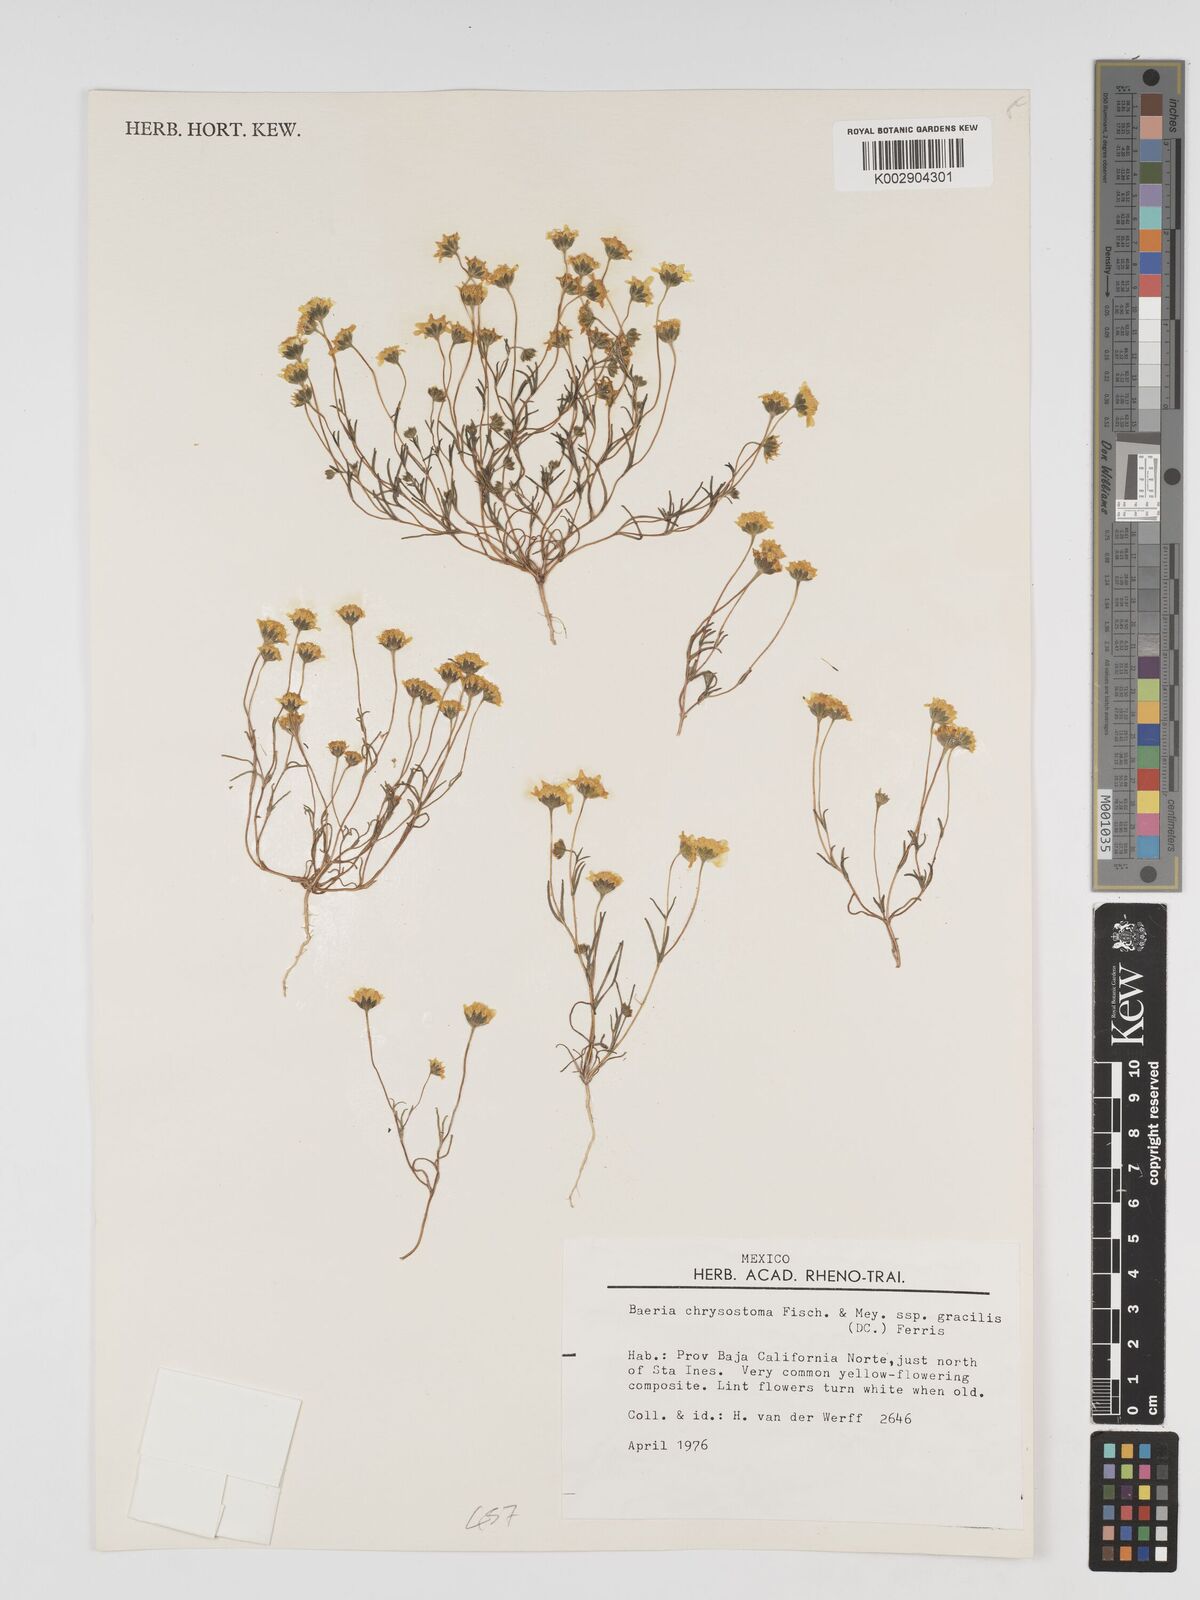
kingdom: Plantae
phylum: Tracheophyta
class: Magnoliopsida
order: Asterales
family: Asteraceae
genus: Lasthenia
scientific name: Lasthenia californica
